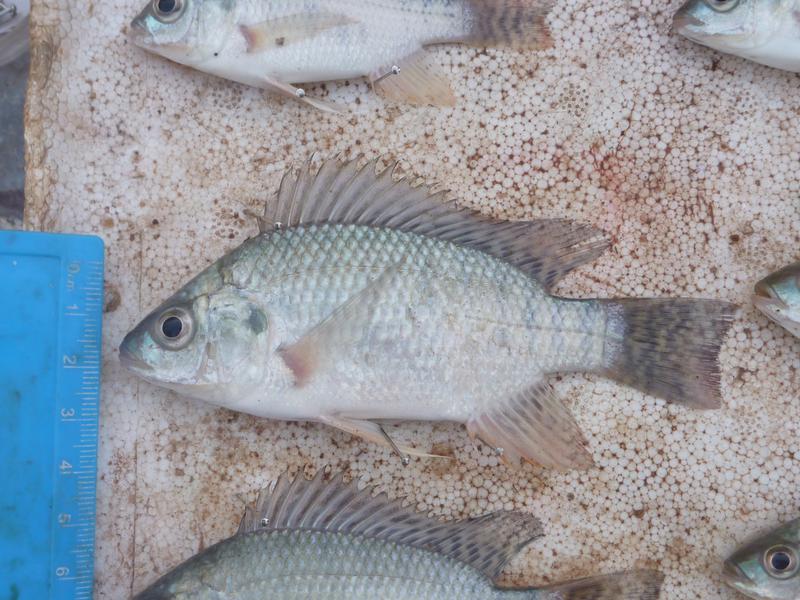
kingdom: Animalia
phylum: Chordata
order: Perciformes
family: Cichlidae
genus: Oreochromis
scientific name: Oreochromis niloticus
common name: Nile tilapia
